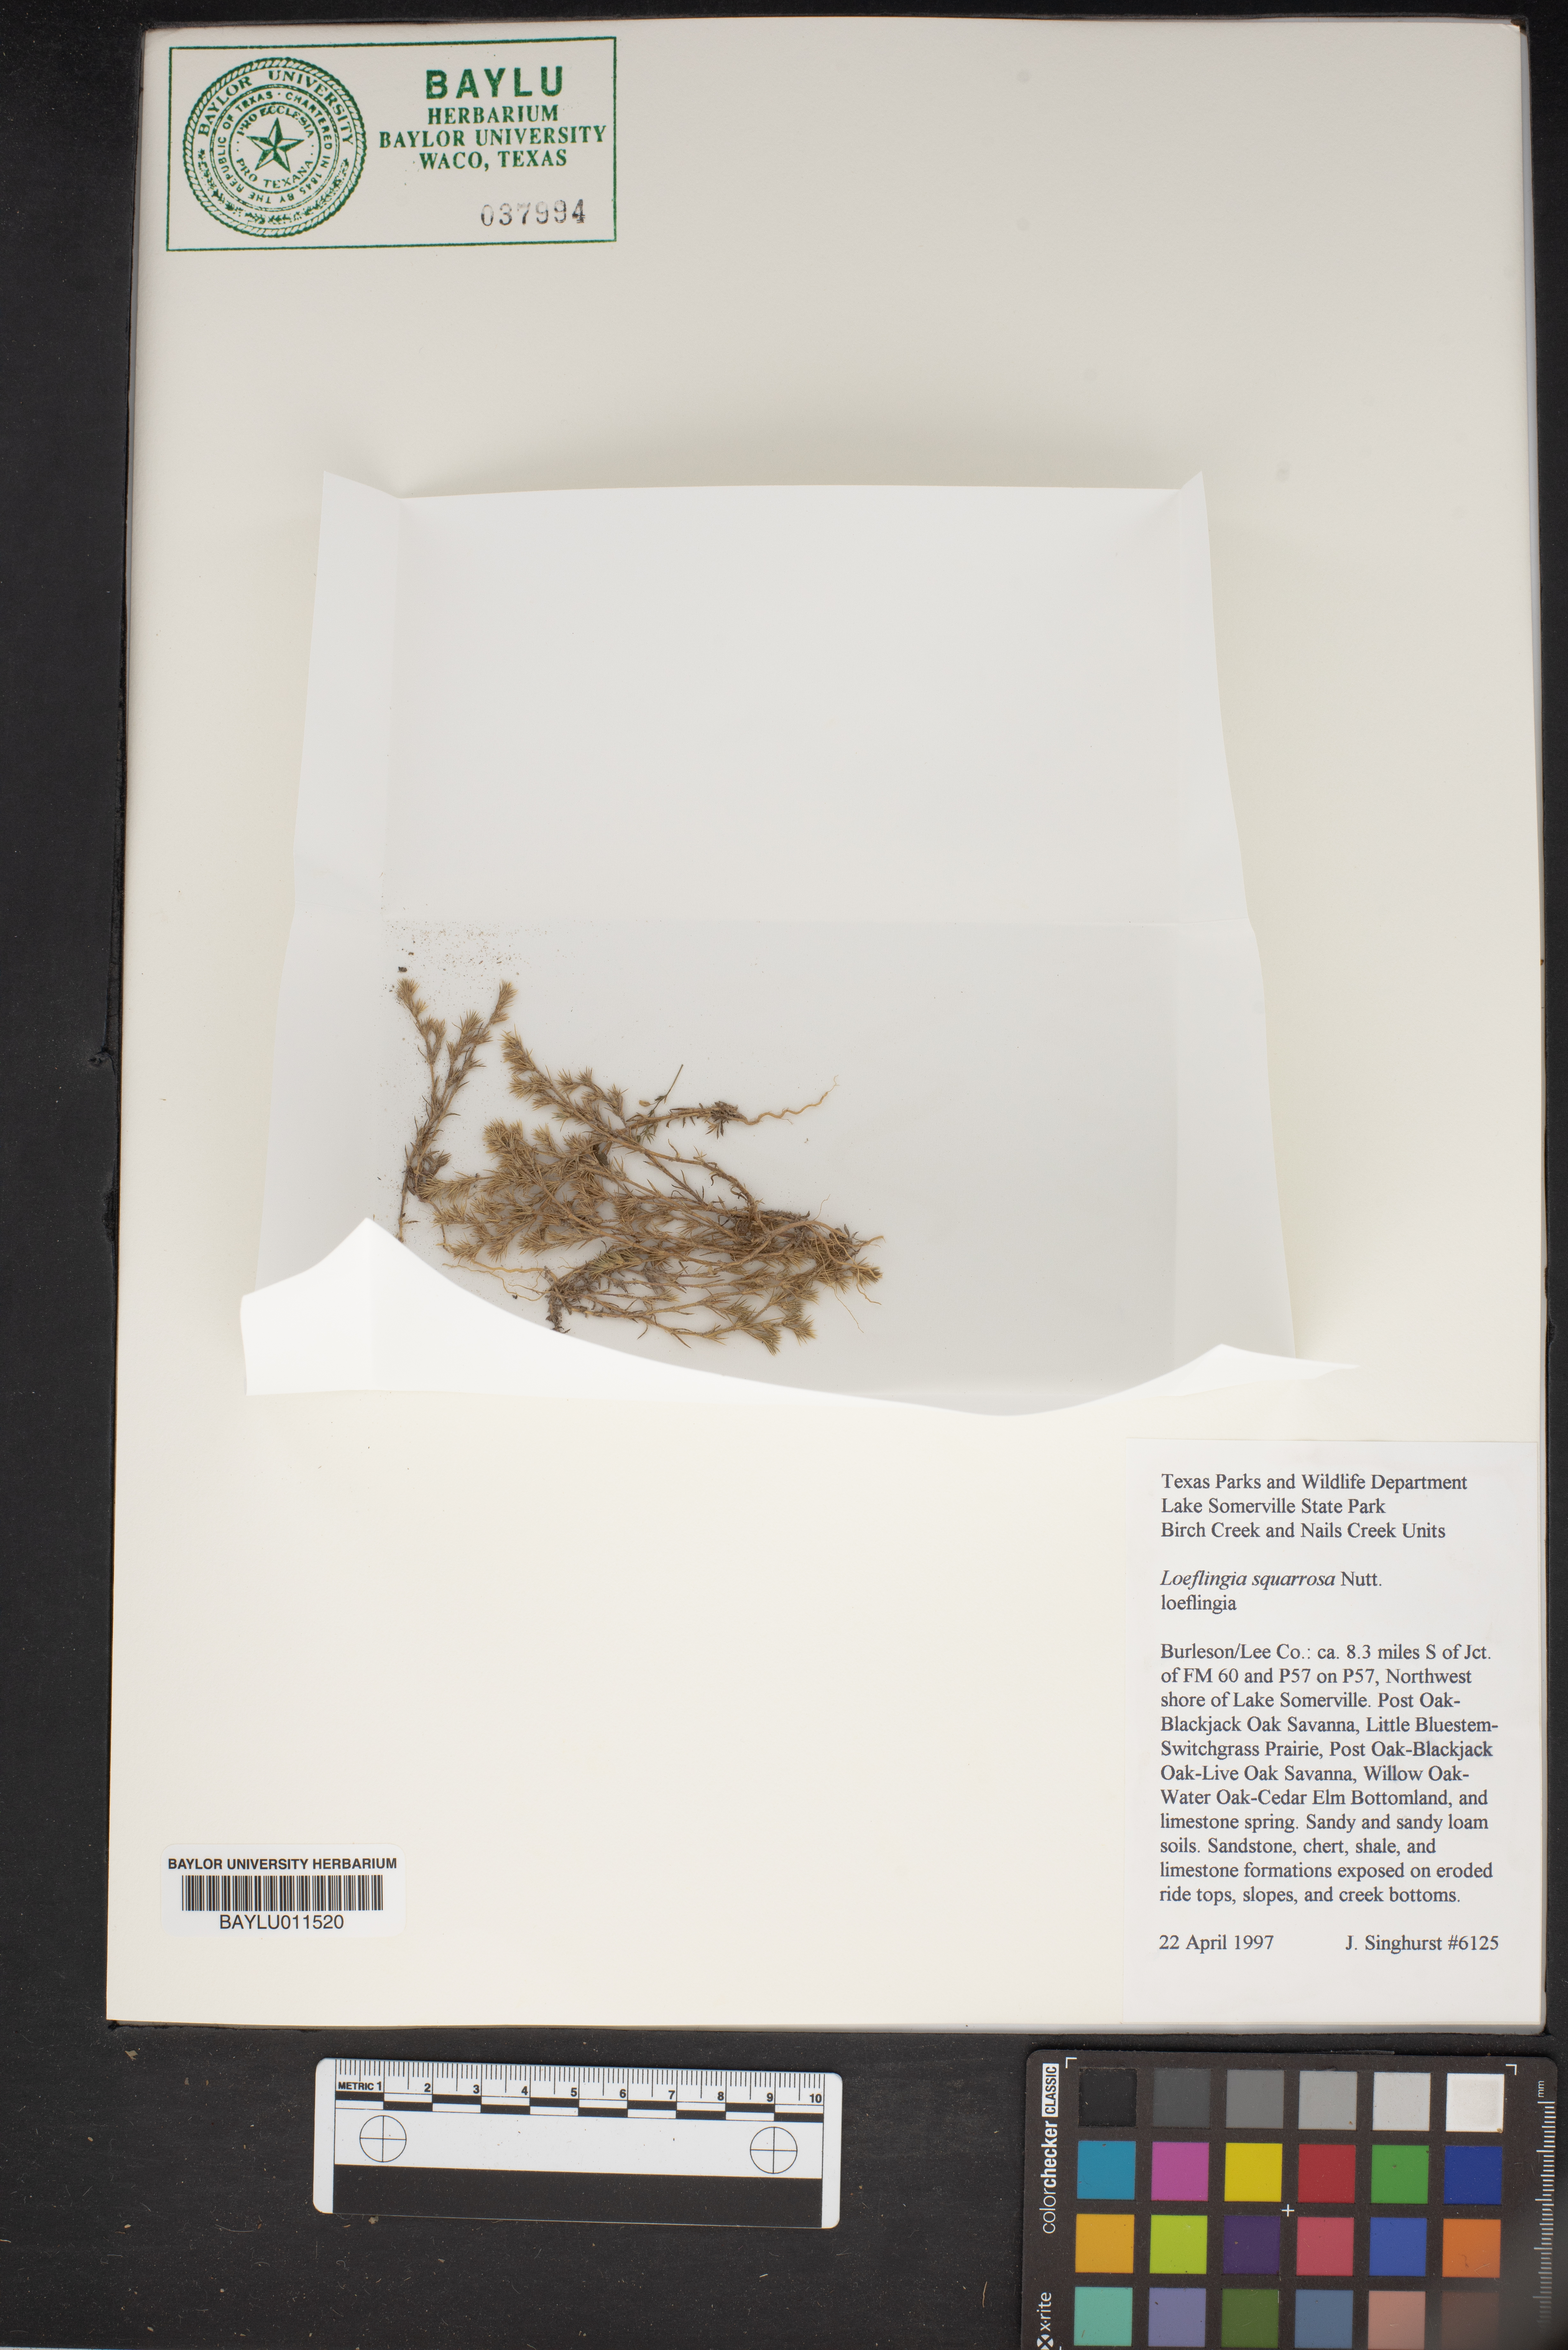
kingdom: Plantae
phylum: Tracheophyta
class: Magnoliopsida
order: Caryophyllales
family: Caryophyllaceae
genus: Loeflingia
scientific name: Loeflingia squarrosa
